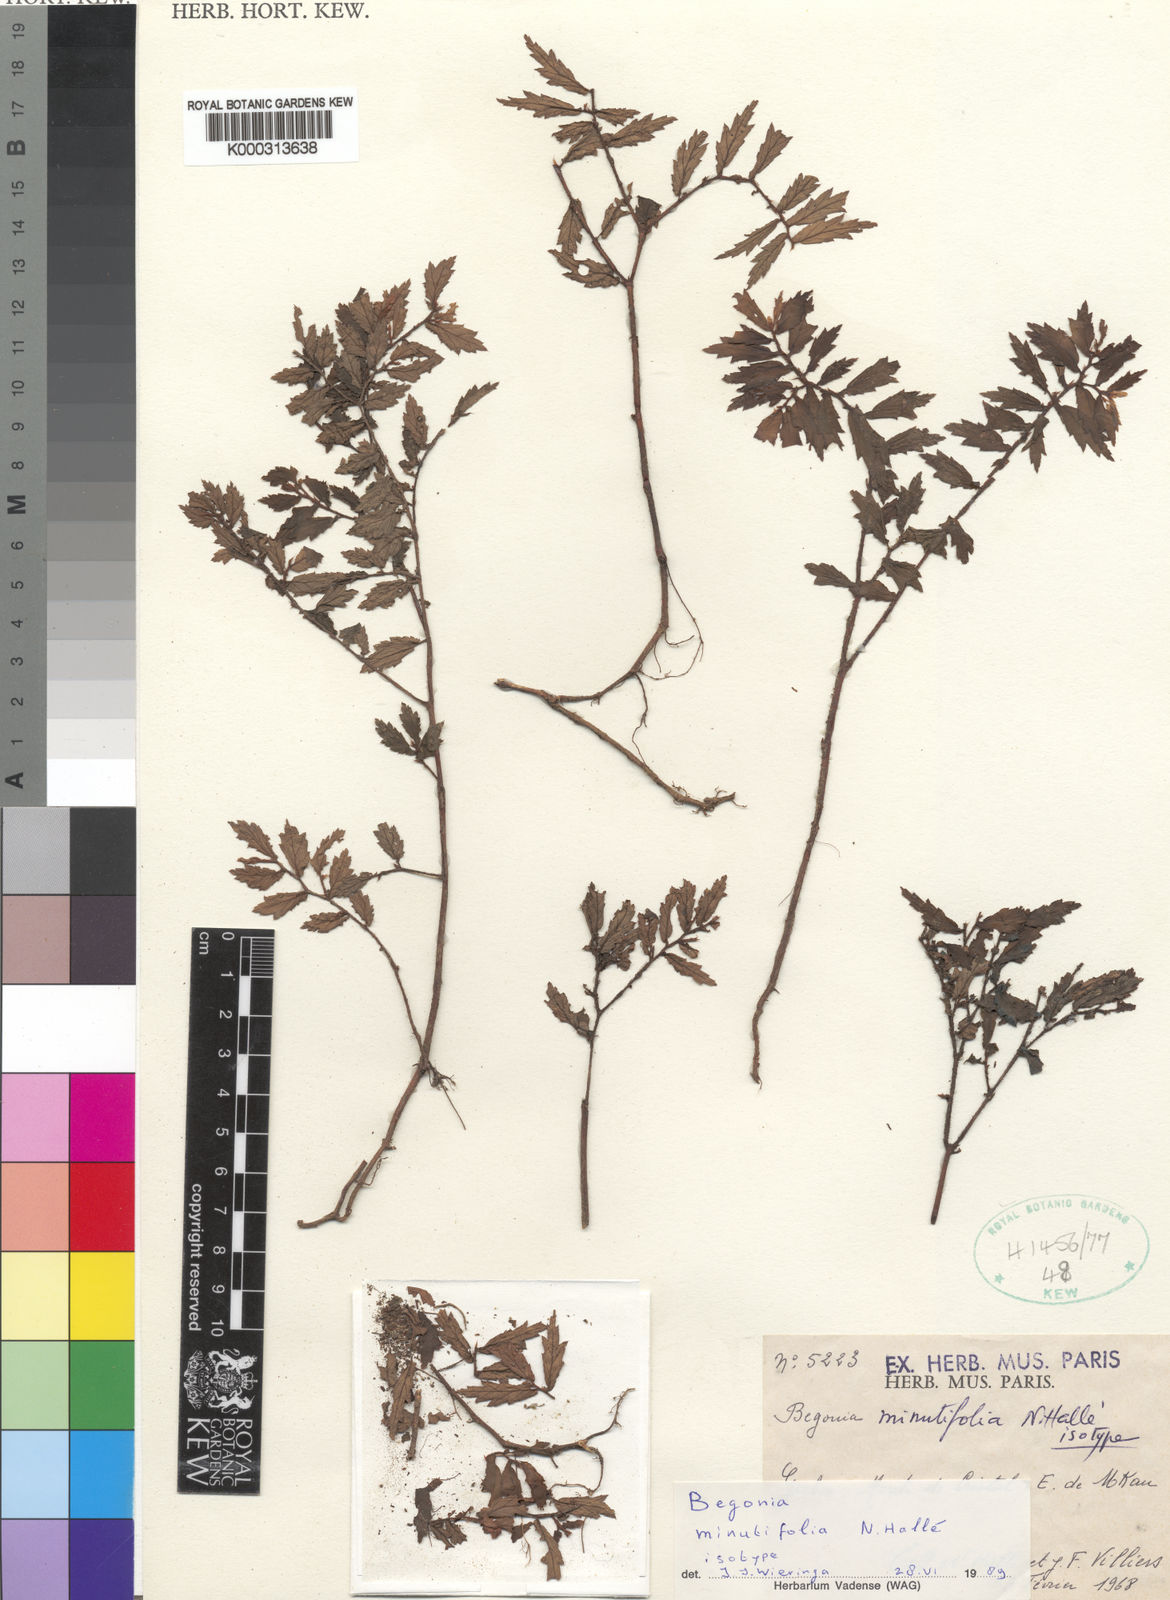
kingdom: Plantae
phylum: Tracheophyta
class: Magnoliopsida
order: Cucurbitales
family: Begoniaceae
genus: Begonia
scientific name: Begonia
